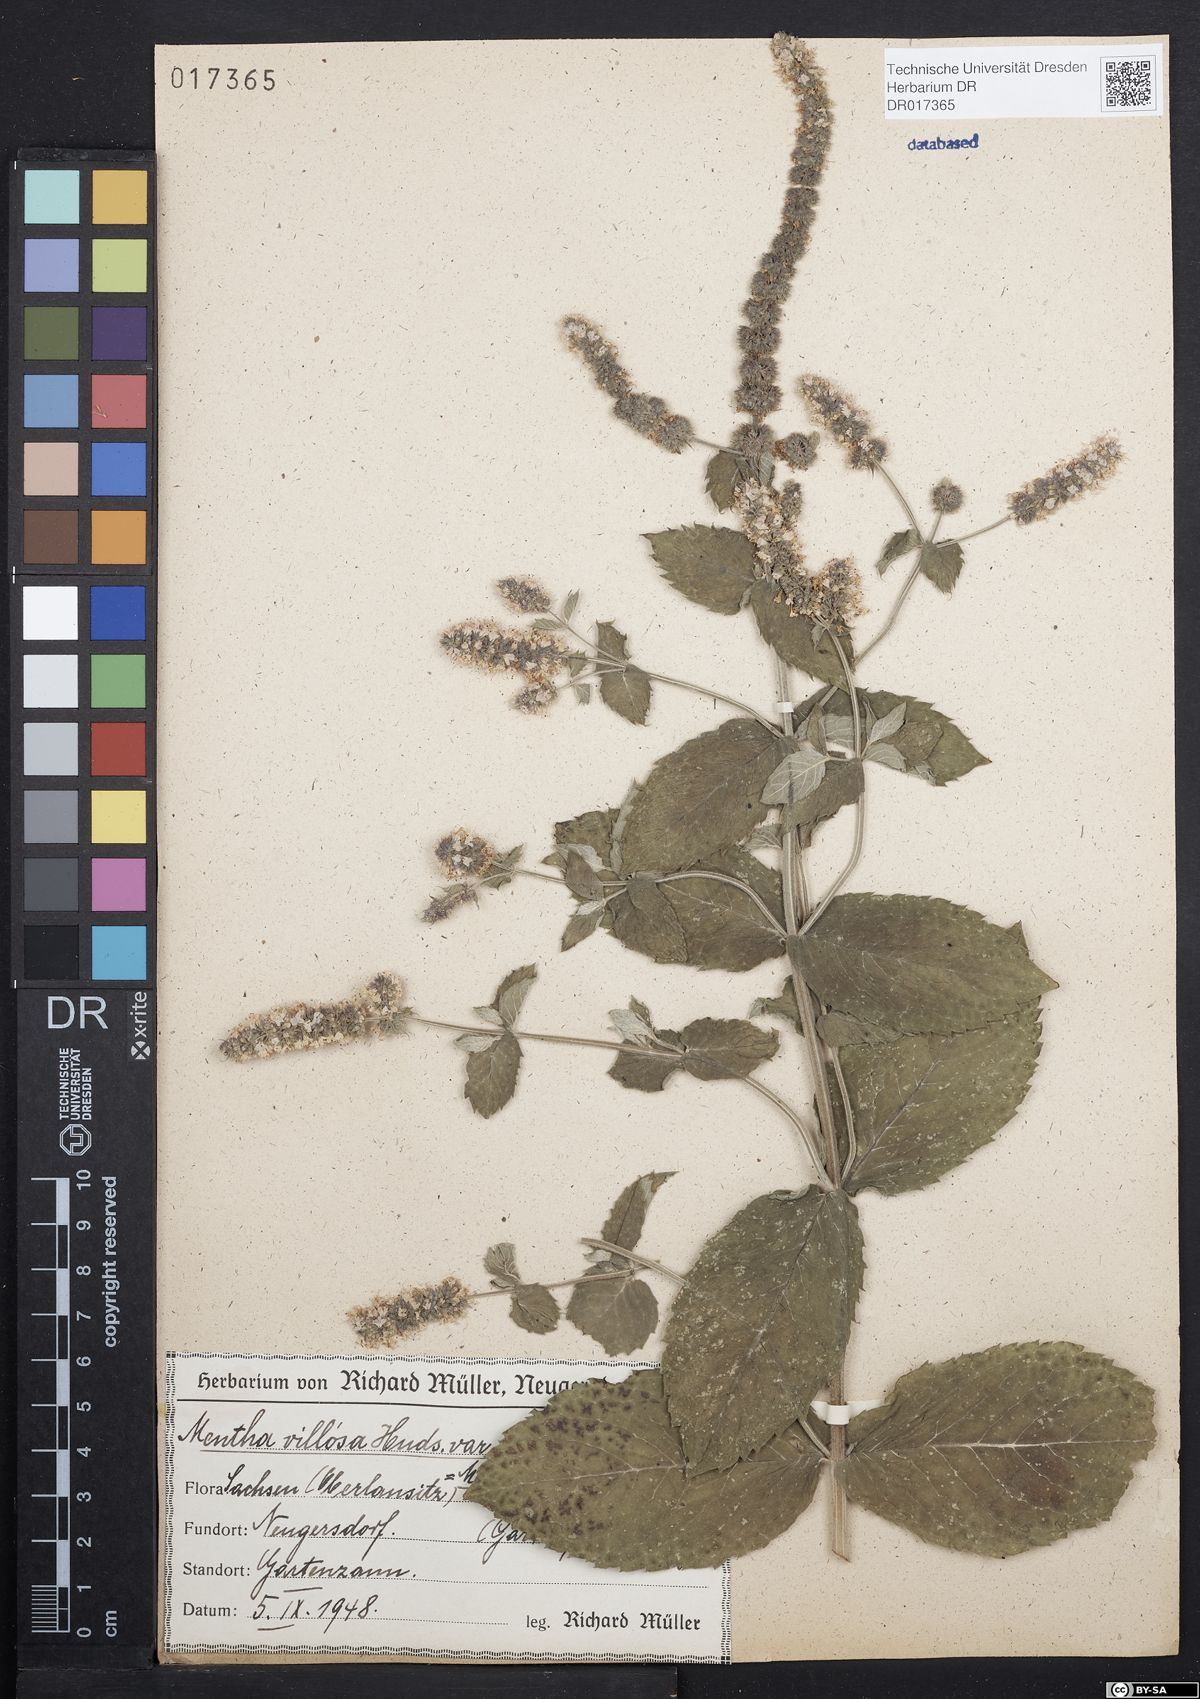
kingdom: Plantae
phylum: Tracheophyta
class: Magnoliopsida
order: Lamiales
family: Lamiaceae
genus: Mentha
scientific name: Mentha villosa
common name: Apple mint
